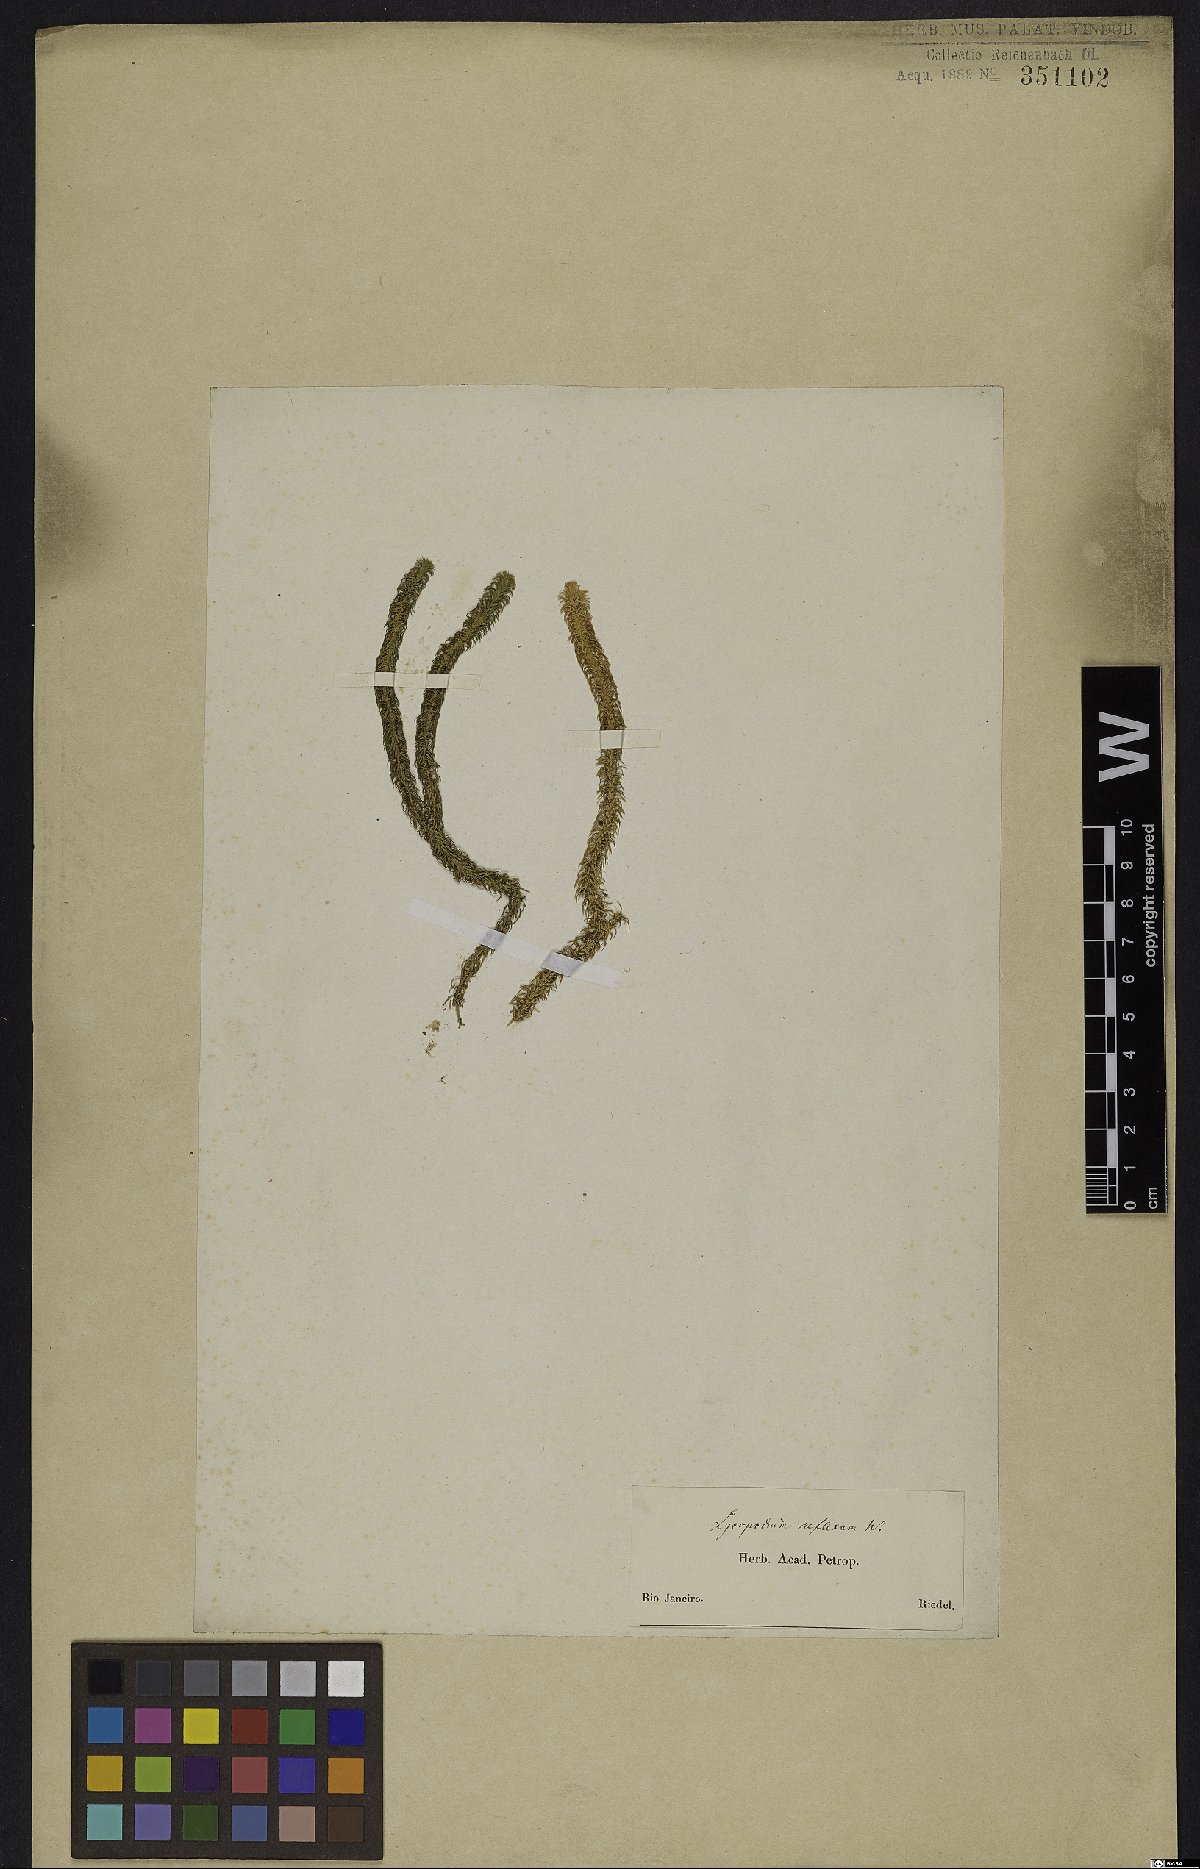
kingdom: Plantae
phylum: Tracheophyta
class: Lycopodiopsida
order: Lycopodiales
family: Lycopodiaceae
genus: Phlegmariurus
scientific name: Phlegmariurus reflexus
